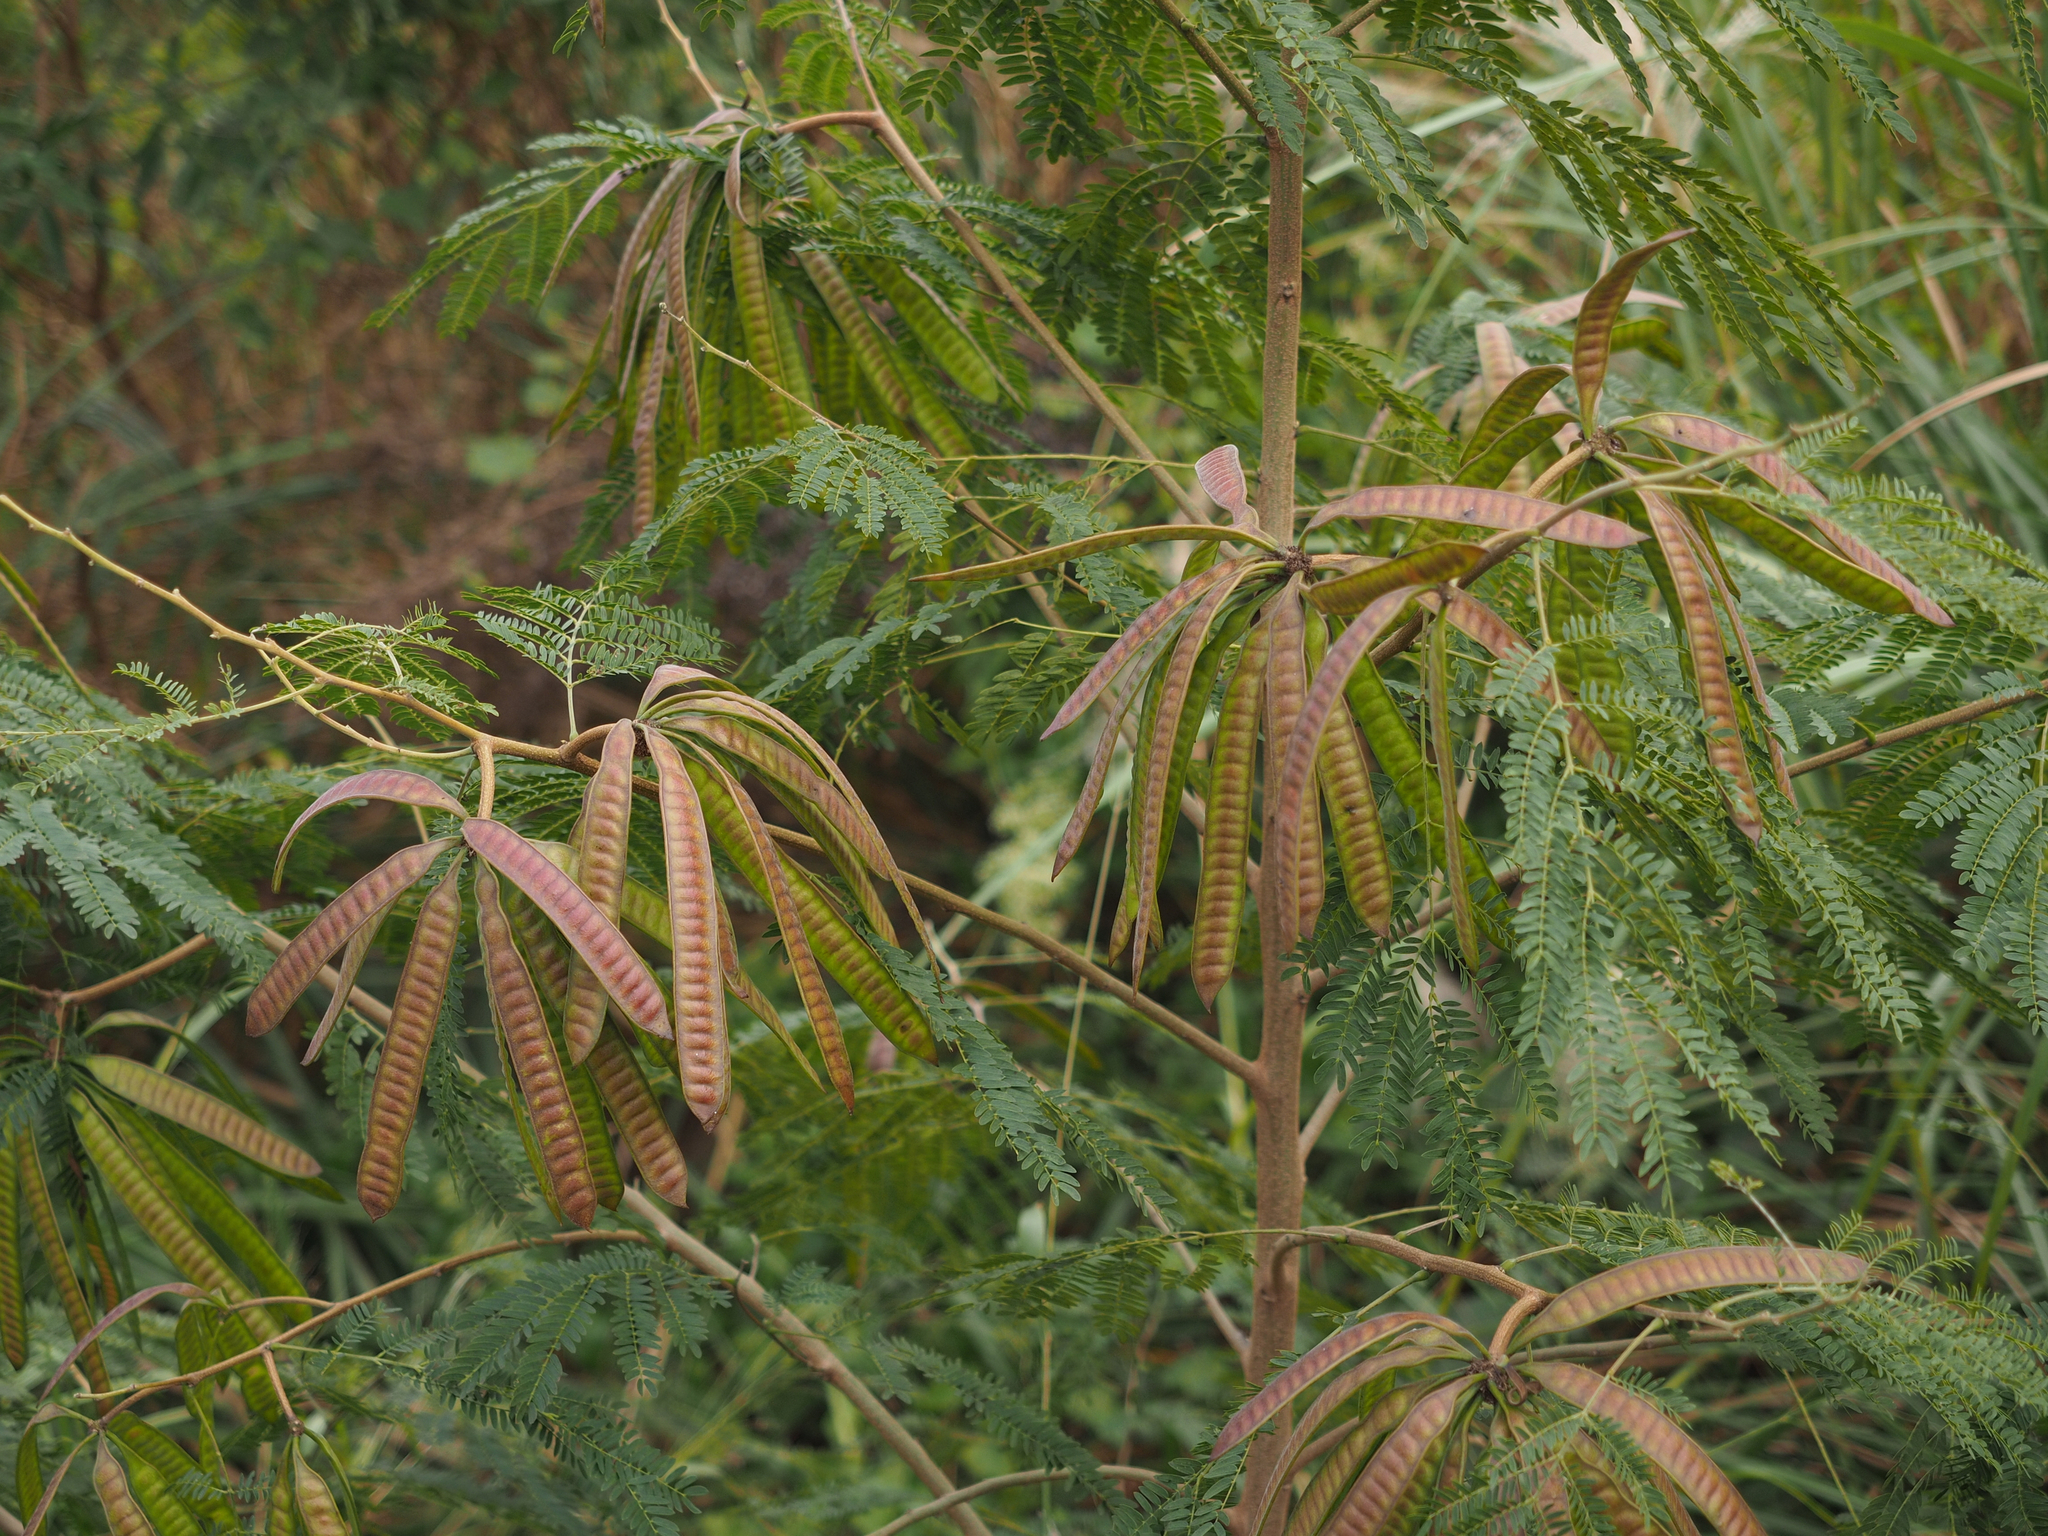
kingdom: Plantae
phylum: Tracheophyta
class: Magnoliopsida
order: Fabales
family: Fabaceae
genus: Leucaena
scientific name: Leucaena leucocephala
